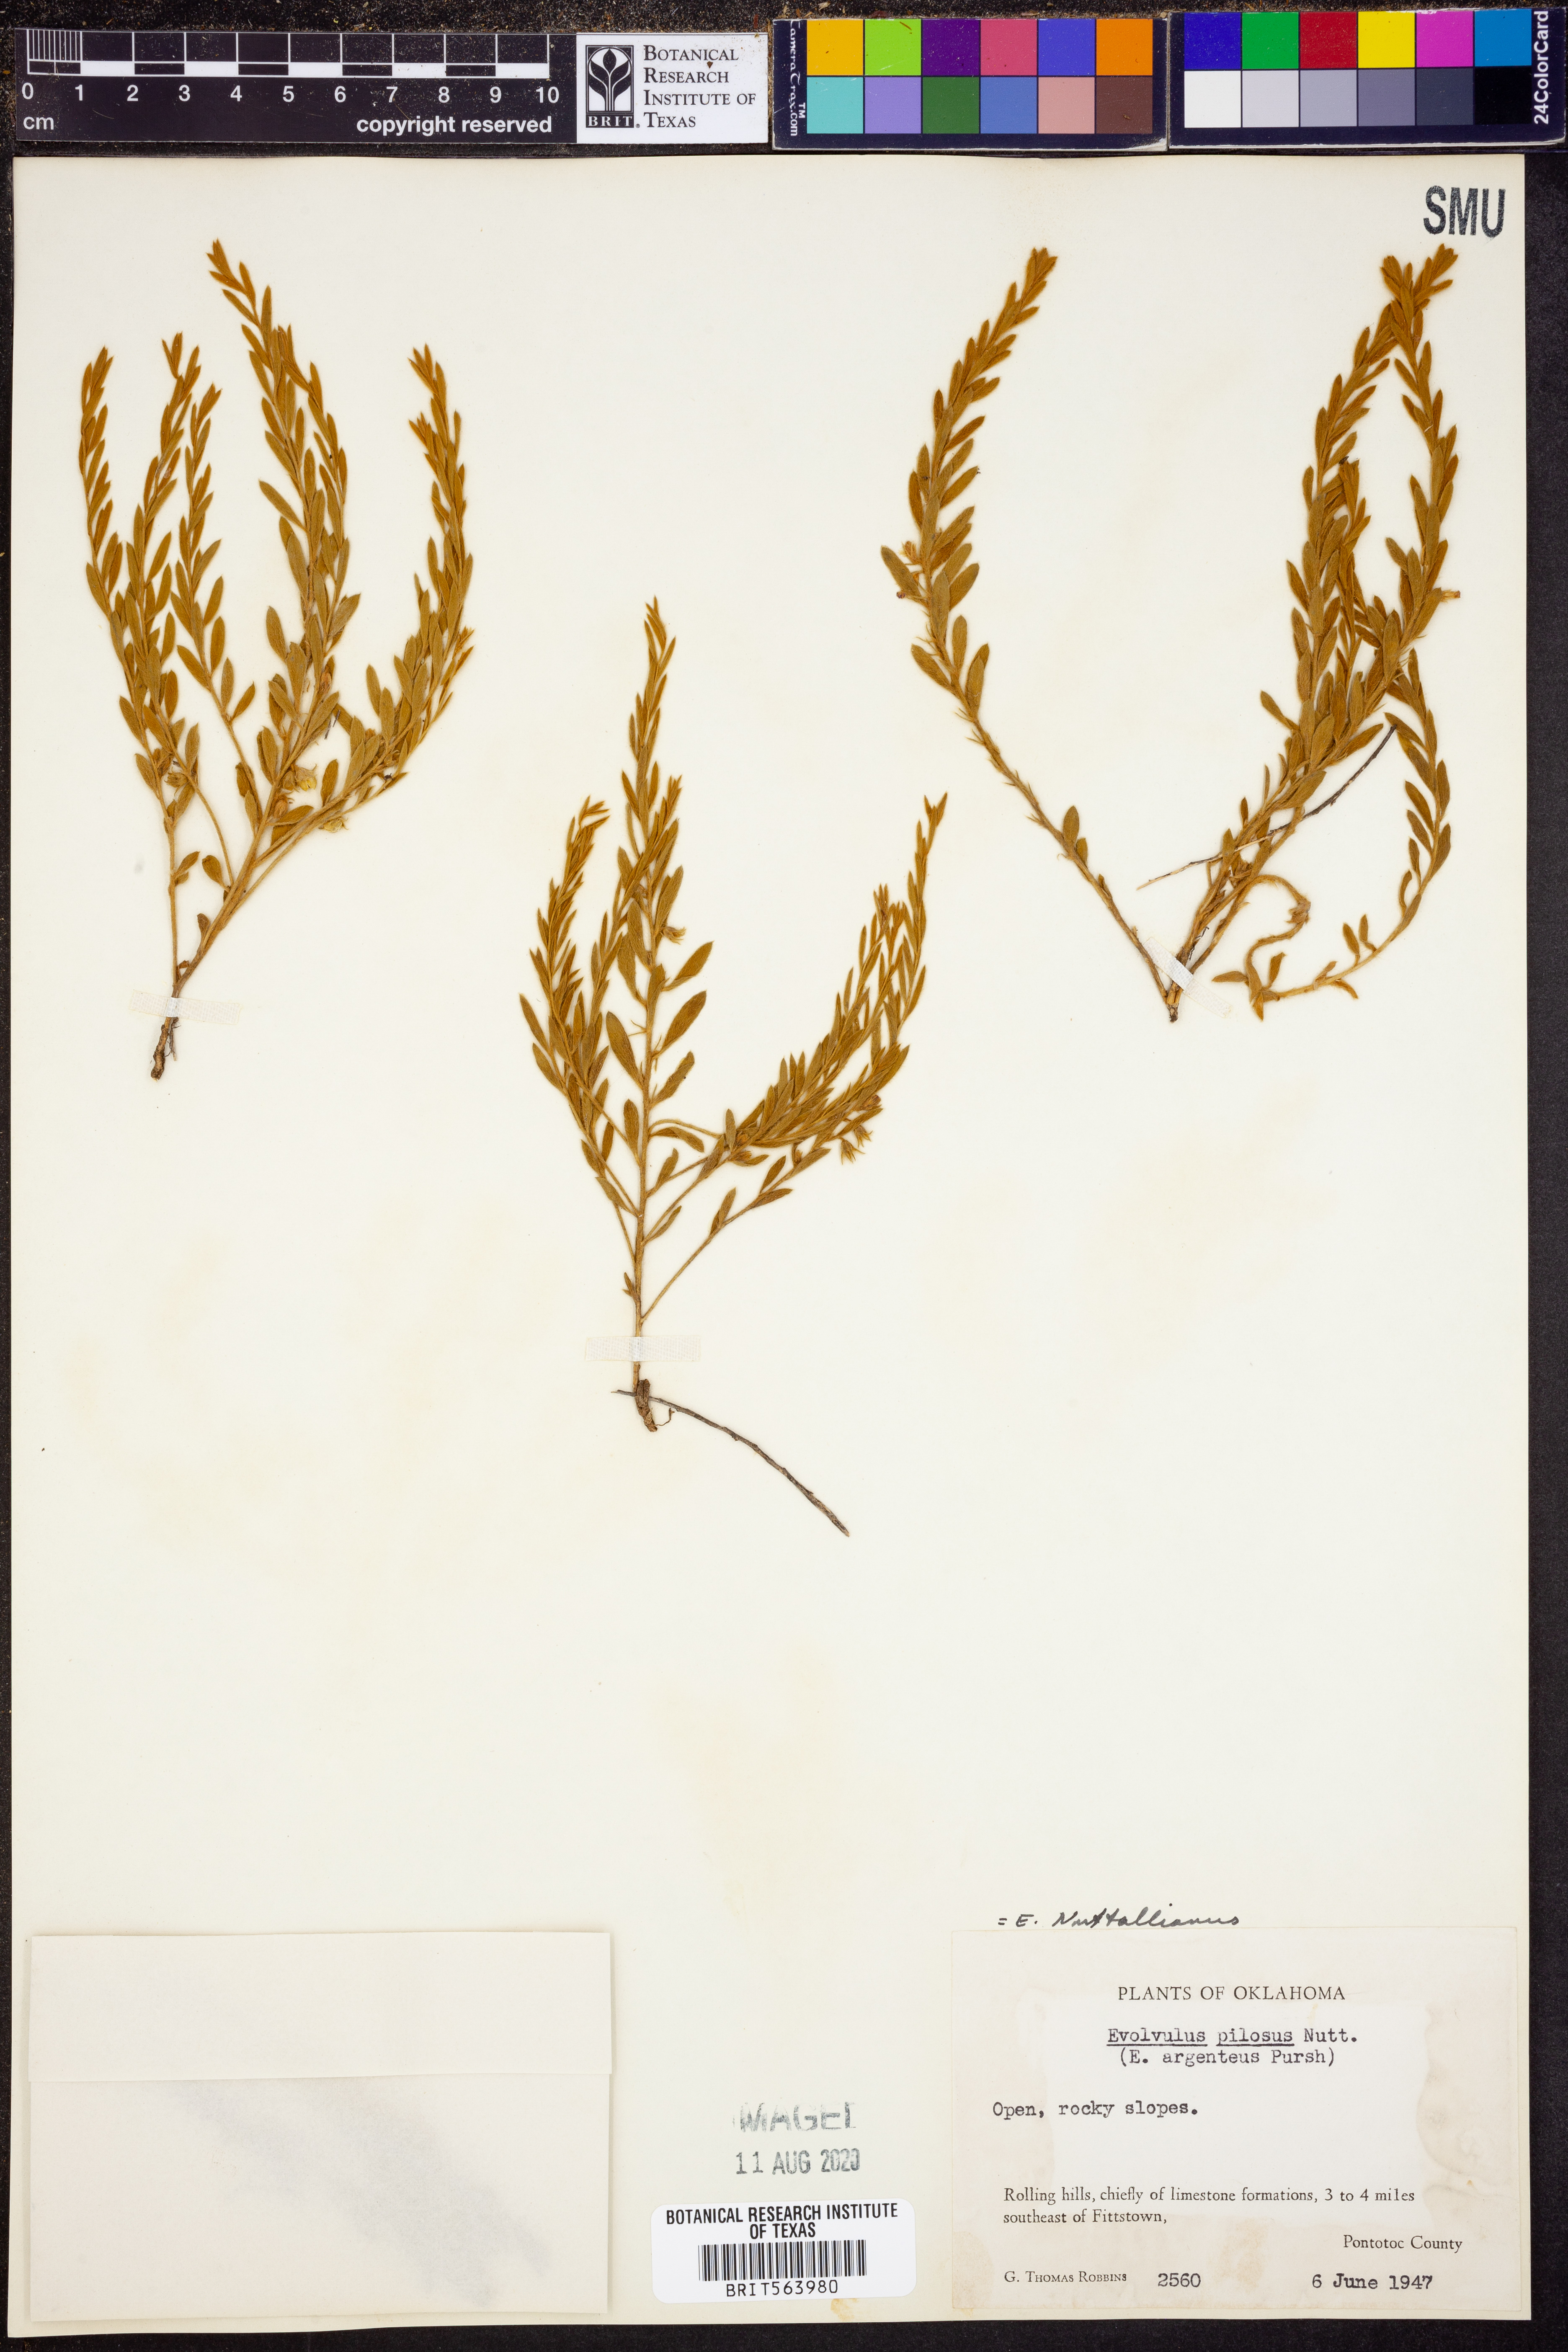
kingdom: Plantae
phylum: Tracheophyta
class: Magnoliopsida
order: Solanales
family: Convolvulaceae
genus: Evolvulus
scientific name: Evolvulus nuttallianus
